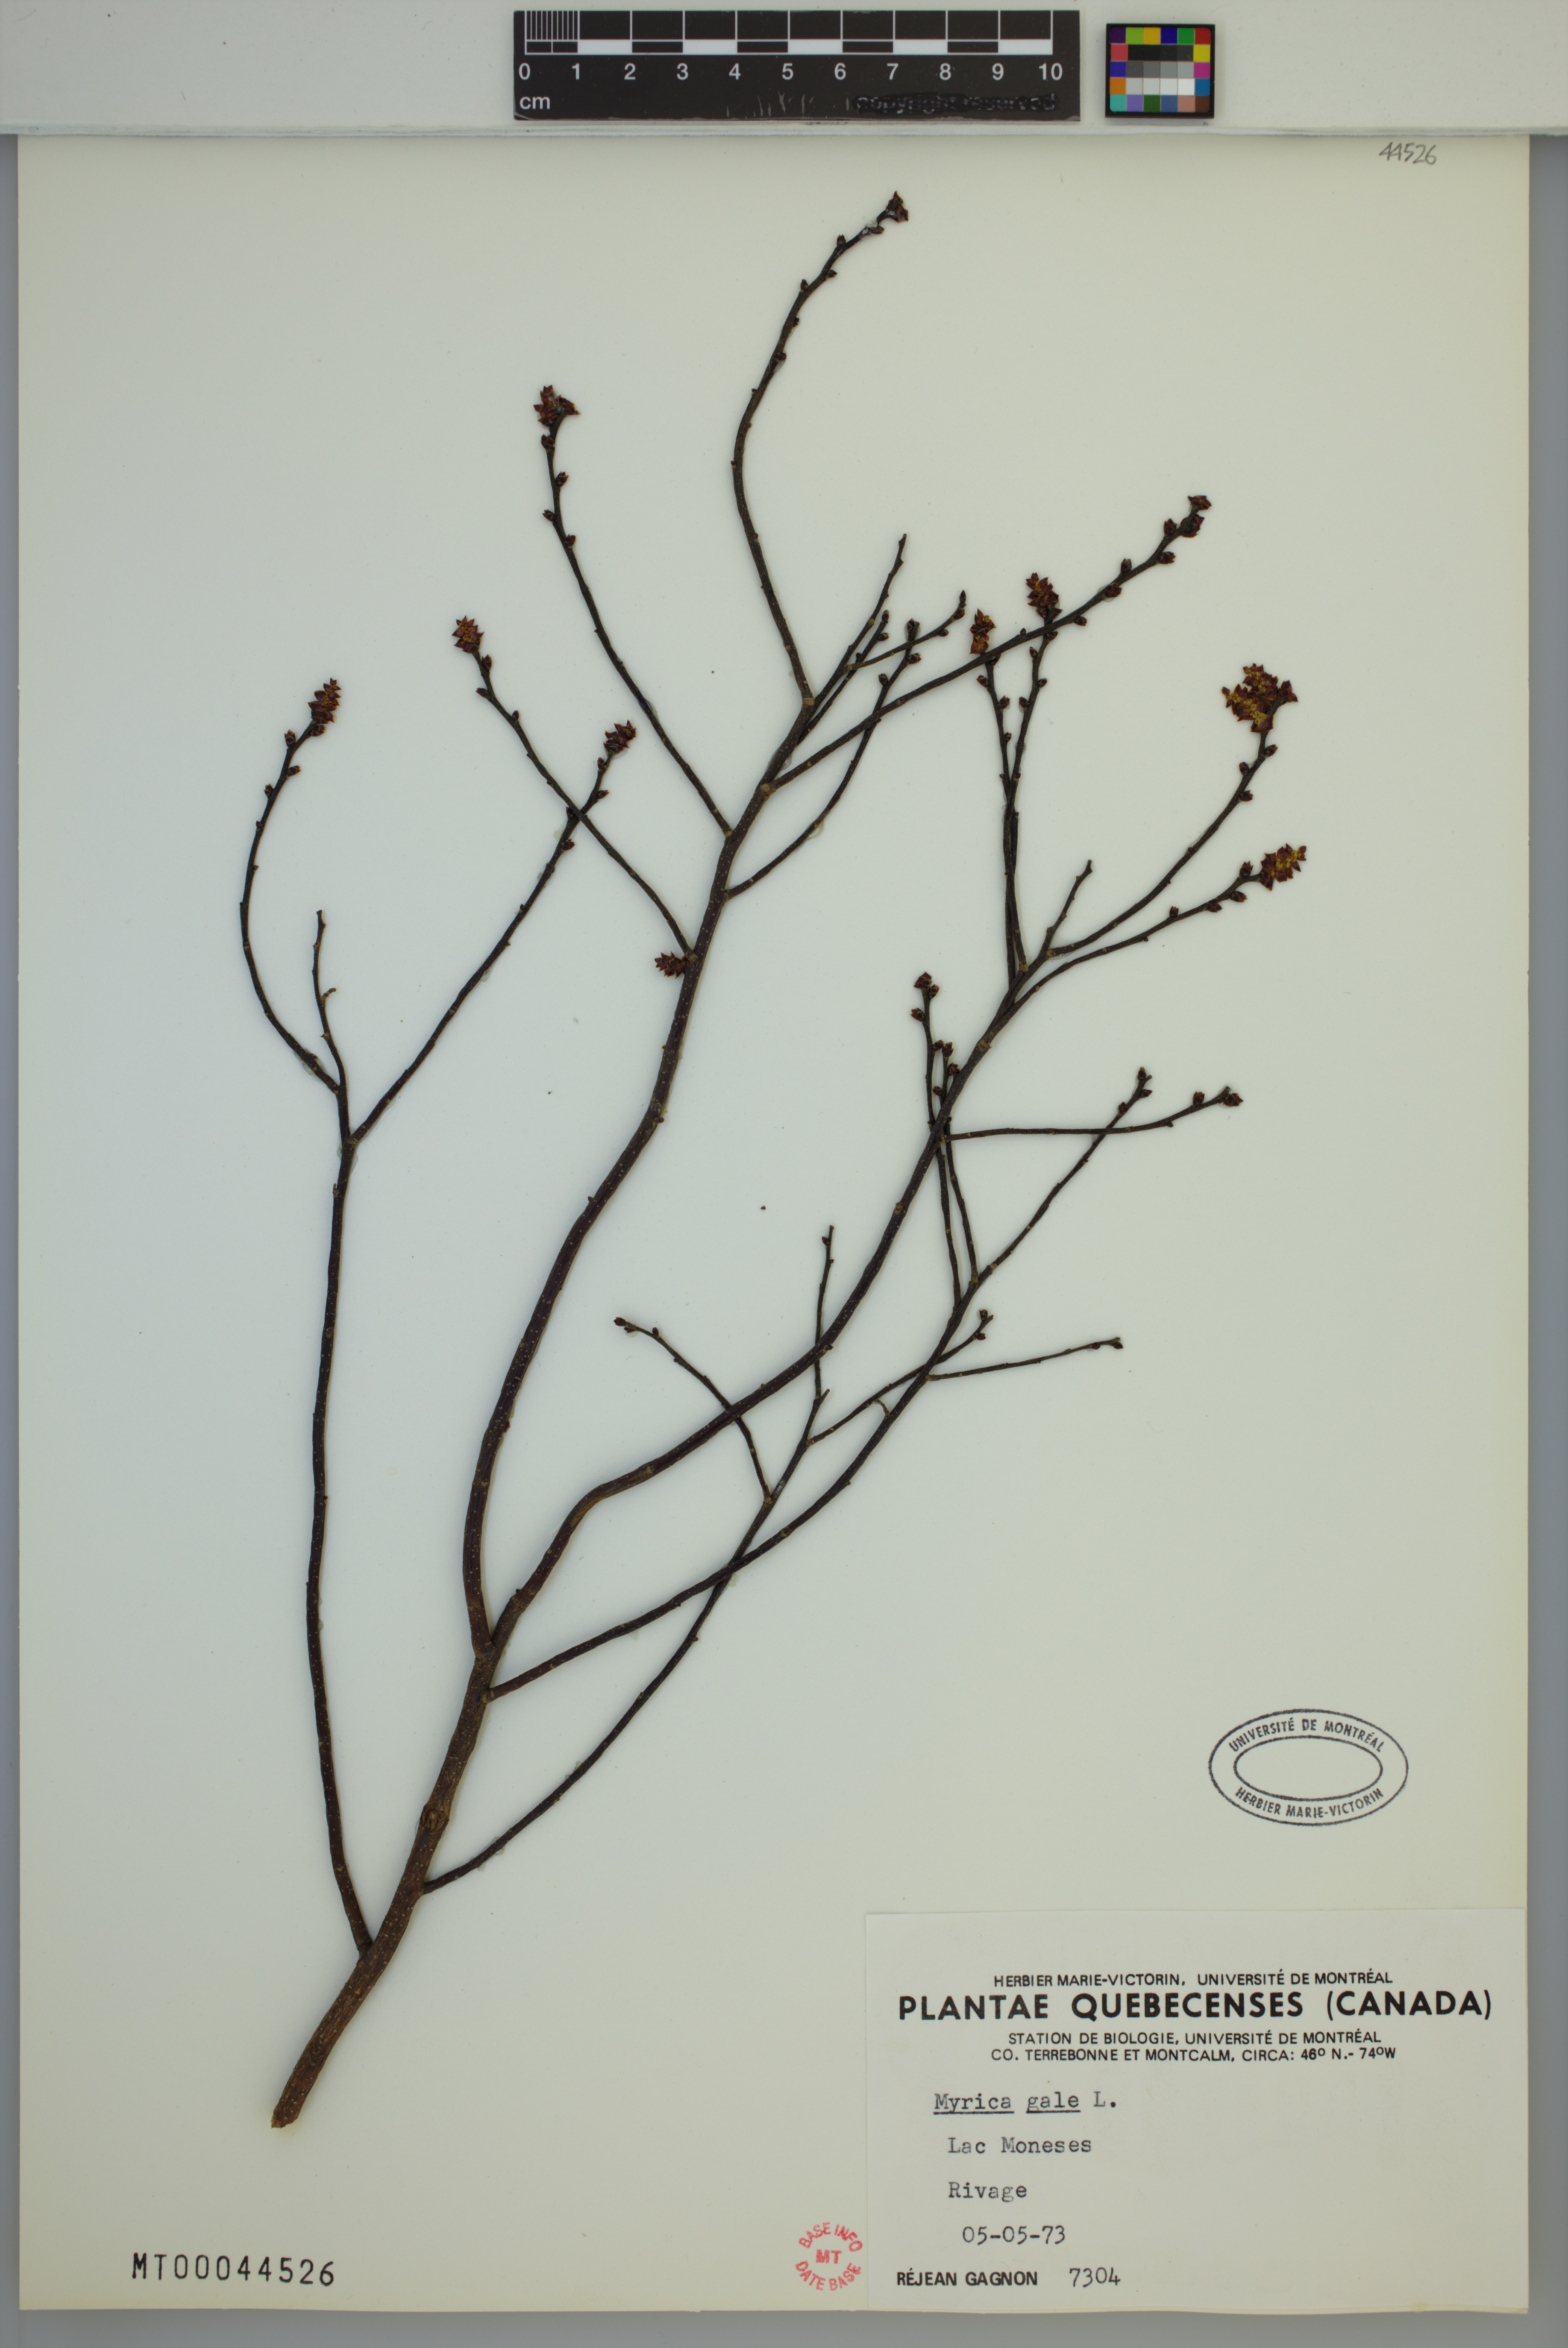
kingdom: Plantae
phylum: Tracheophyta
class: Magnoliopsida
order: Fagales
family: Myricaceae
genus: Myrica
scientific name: Myrica gale
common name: Sweet gale
